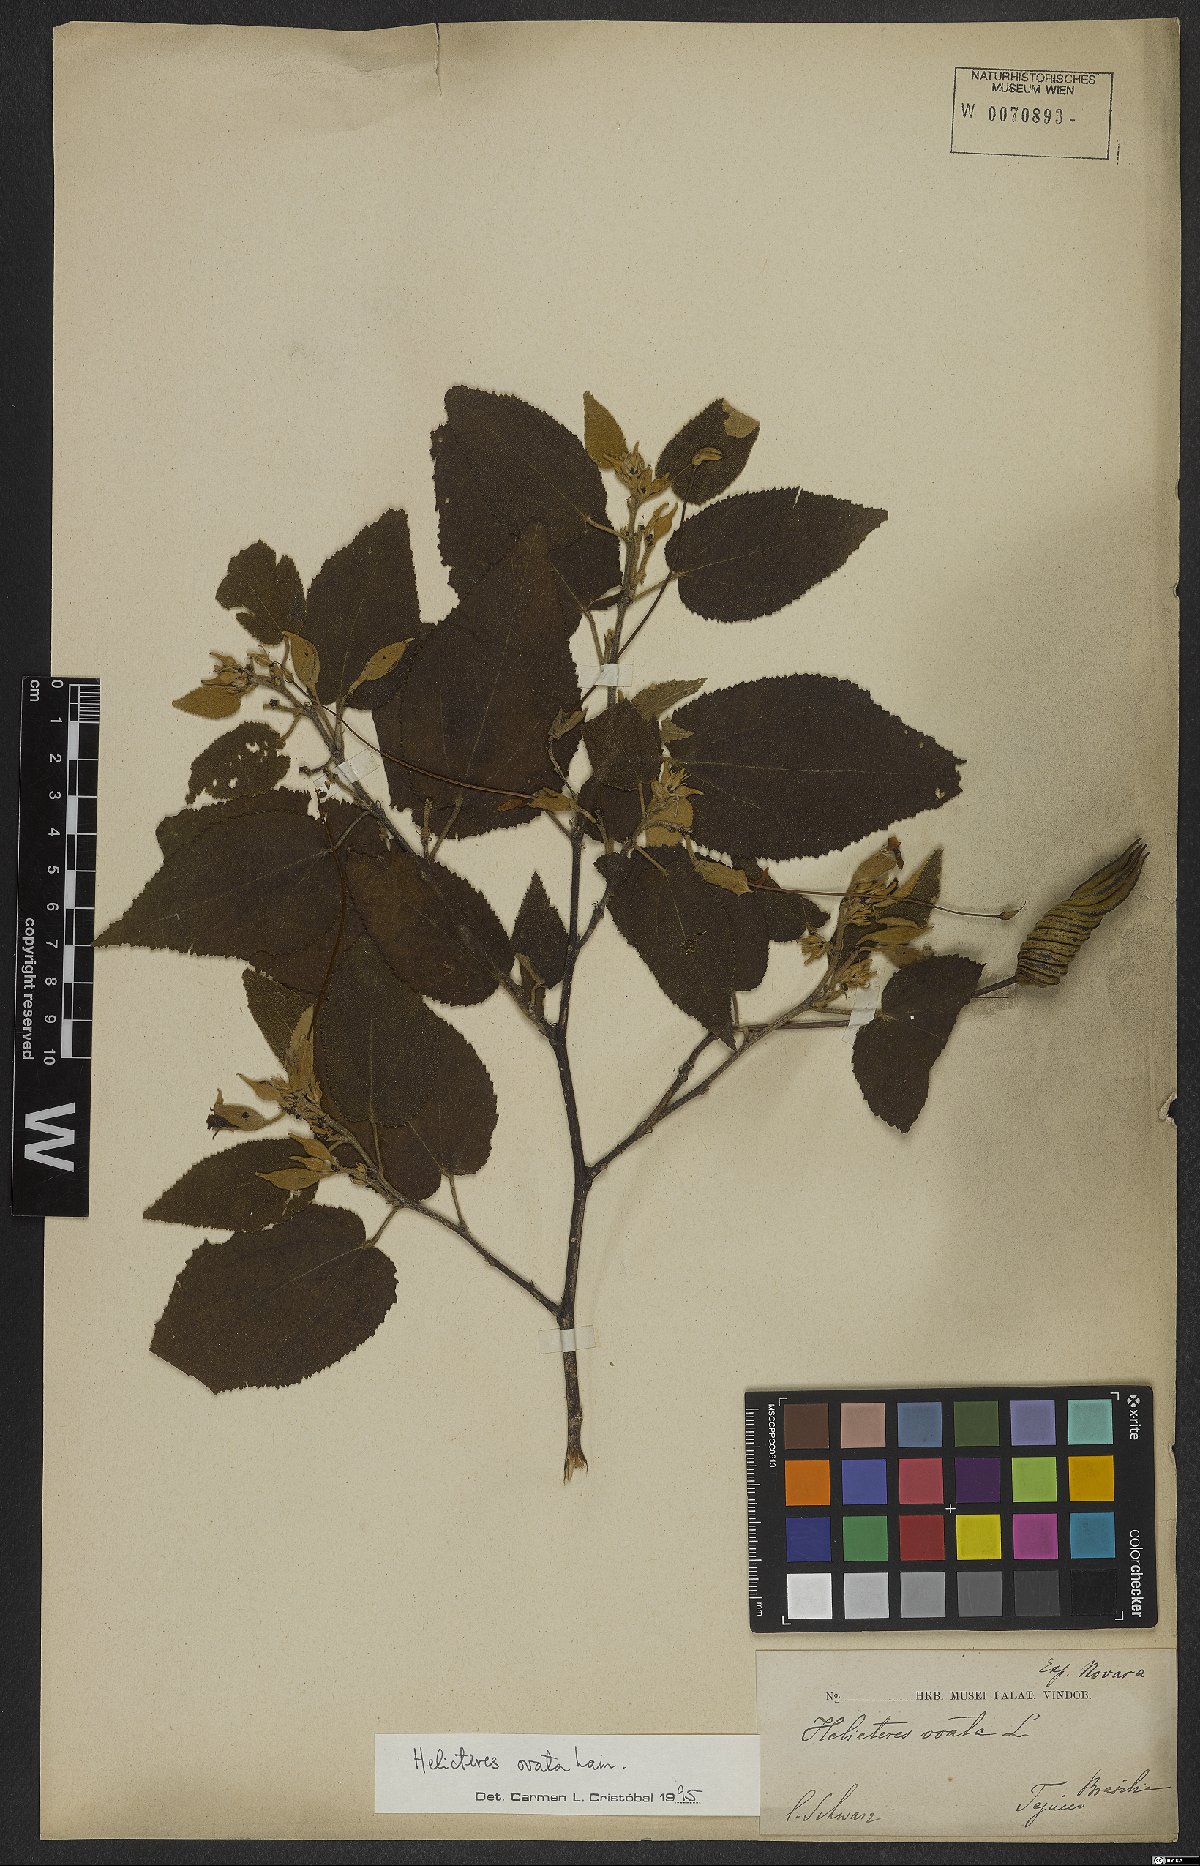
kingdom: Plantae
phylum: Tracheophyta
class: Magnoliopsida
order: Malvales
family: Malvaceae
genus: Helicteres
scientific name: Helicteres ovata
